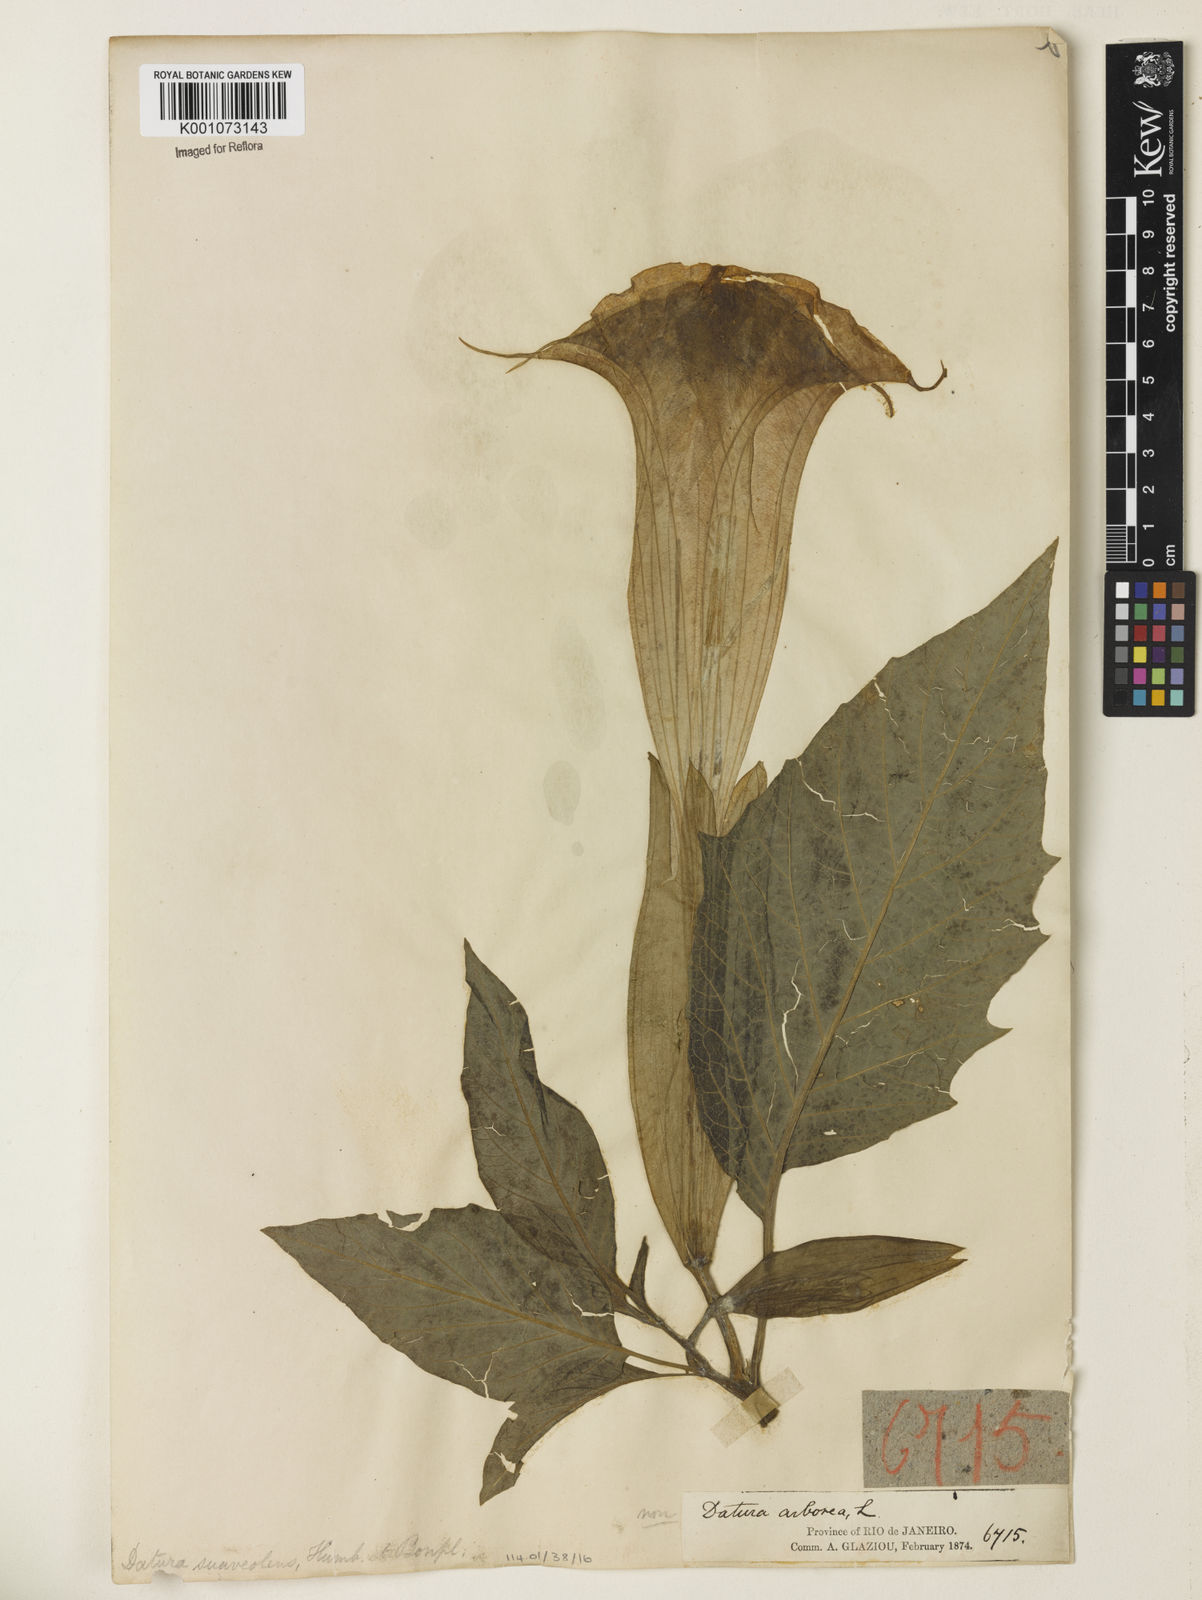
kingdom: Plantae
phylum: Tracheophyta
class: Magnoliopsida
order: Solanales
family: Solanaceae
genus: Brugmansia
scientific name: Brugmansia
